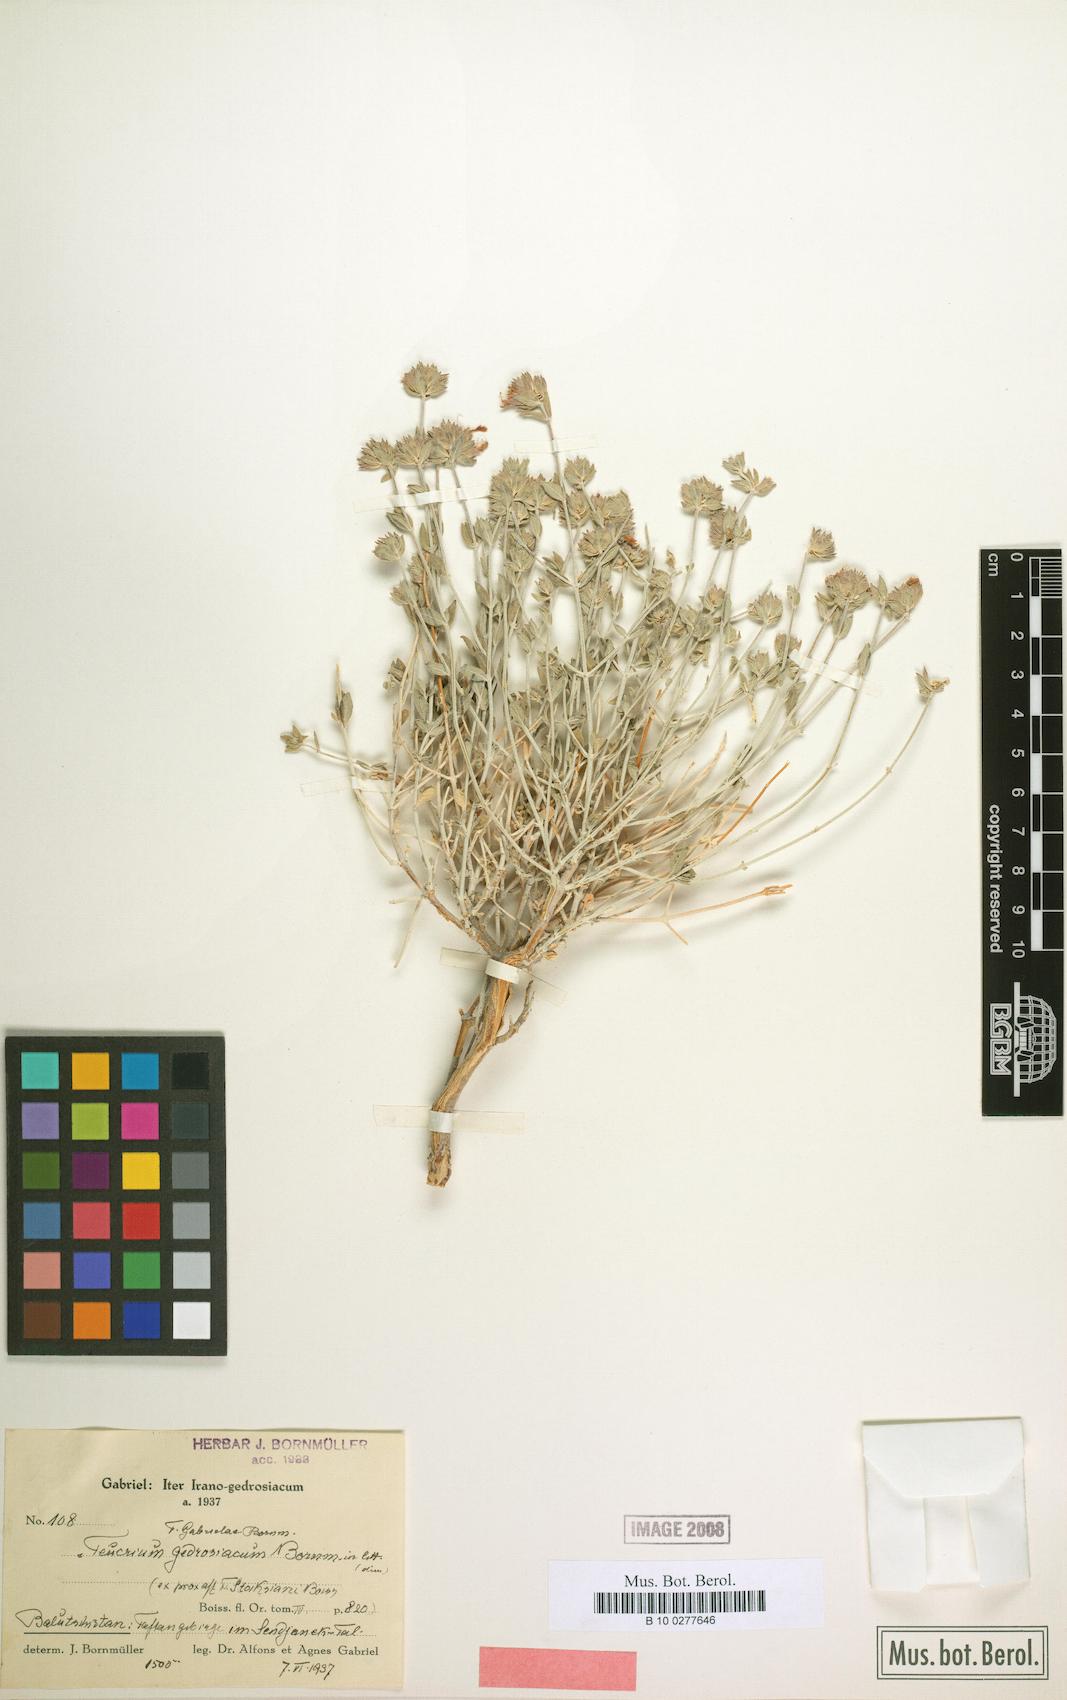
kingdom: Plantae
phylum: Tracheophyta
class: Magnoliopsida
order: Lamiales
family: Lamiaceae
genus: Teucrium
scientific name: Teucrium stocksianum
